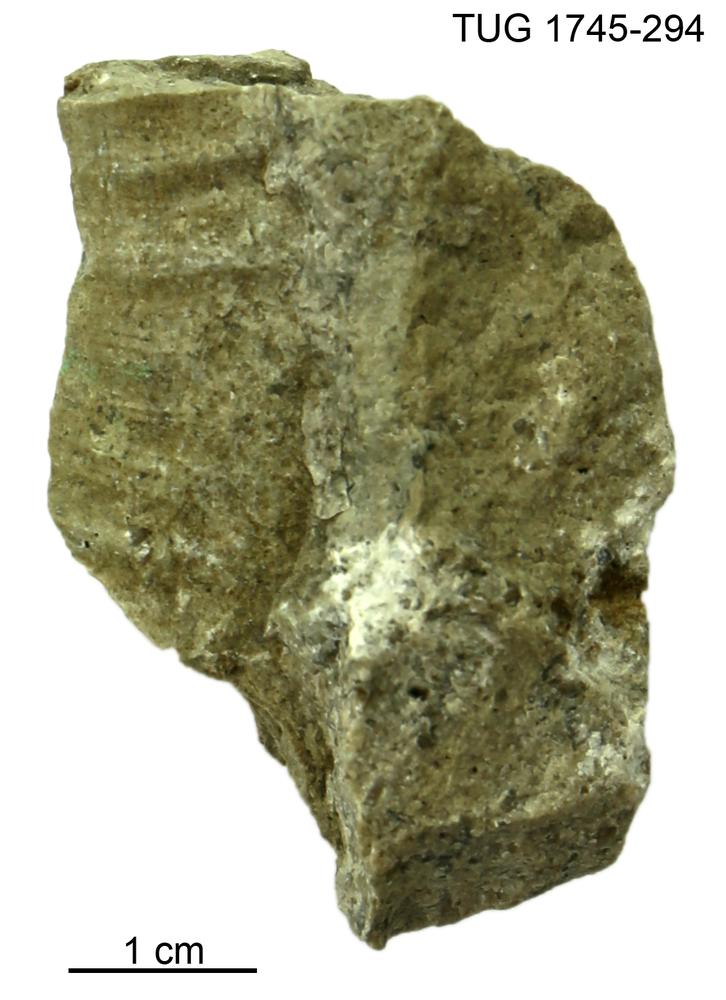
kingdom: Animalia
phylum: Mollusca
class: Cephalopoda
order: Orthocerida
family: Pseudorthoceratidae
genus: Spyroceras
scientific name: Spyroceras
